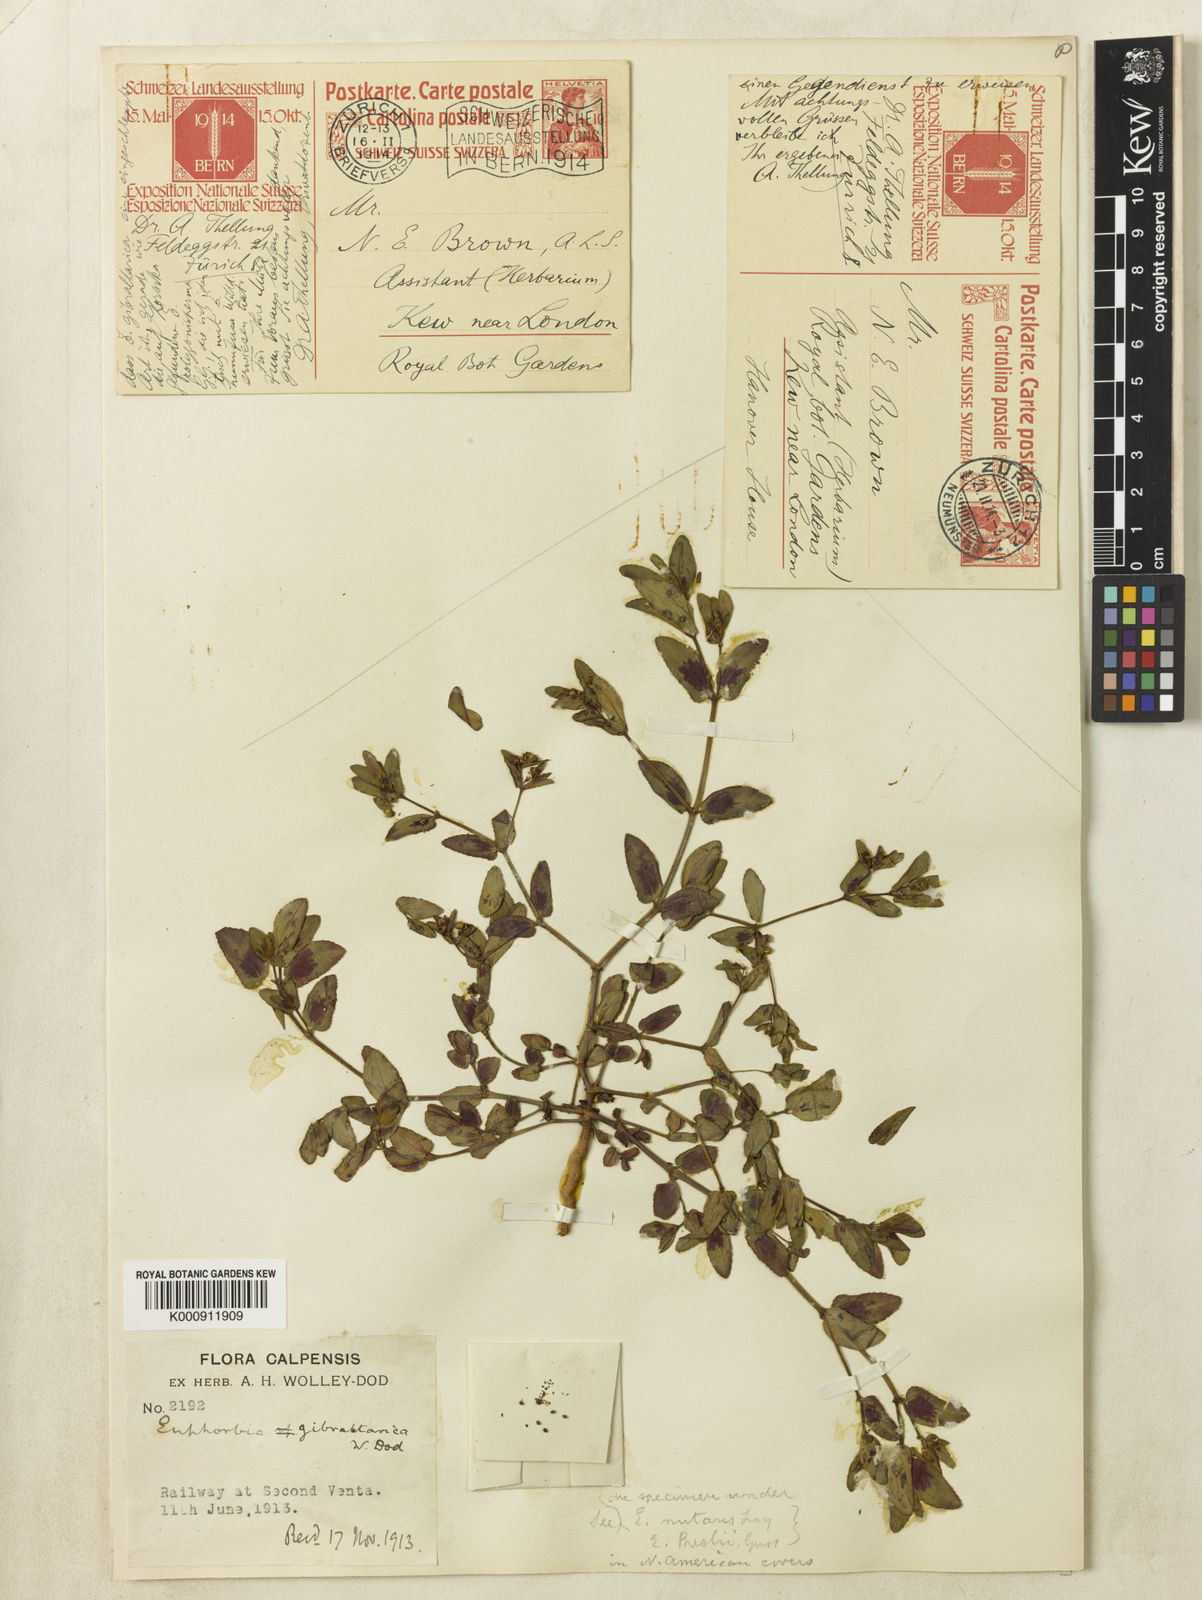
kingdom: Plantae
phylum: Tracheophyta
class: Magnoliopsida
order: Malpighiales
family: Euphorbiaceae
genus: Euphorbia
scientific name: Euphorbia nutans
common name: Eyebane
